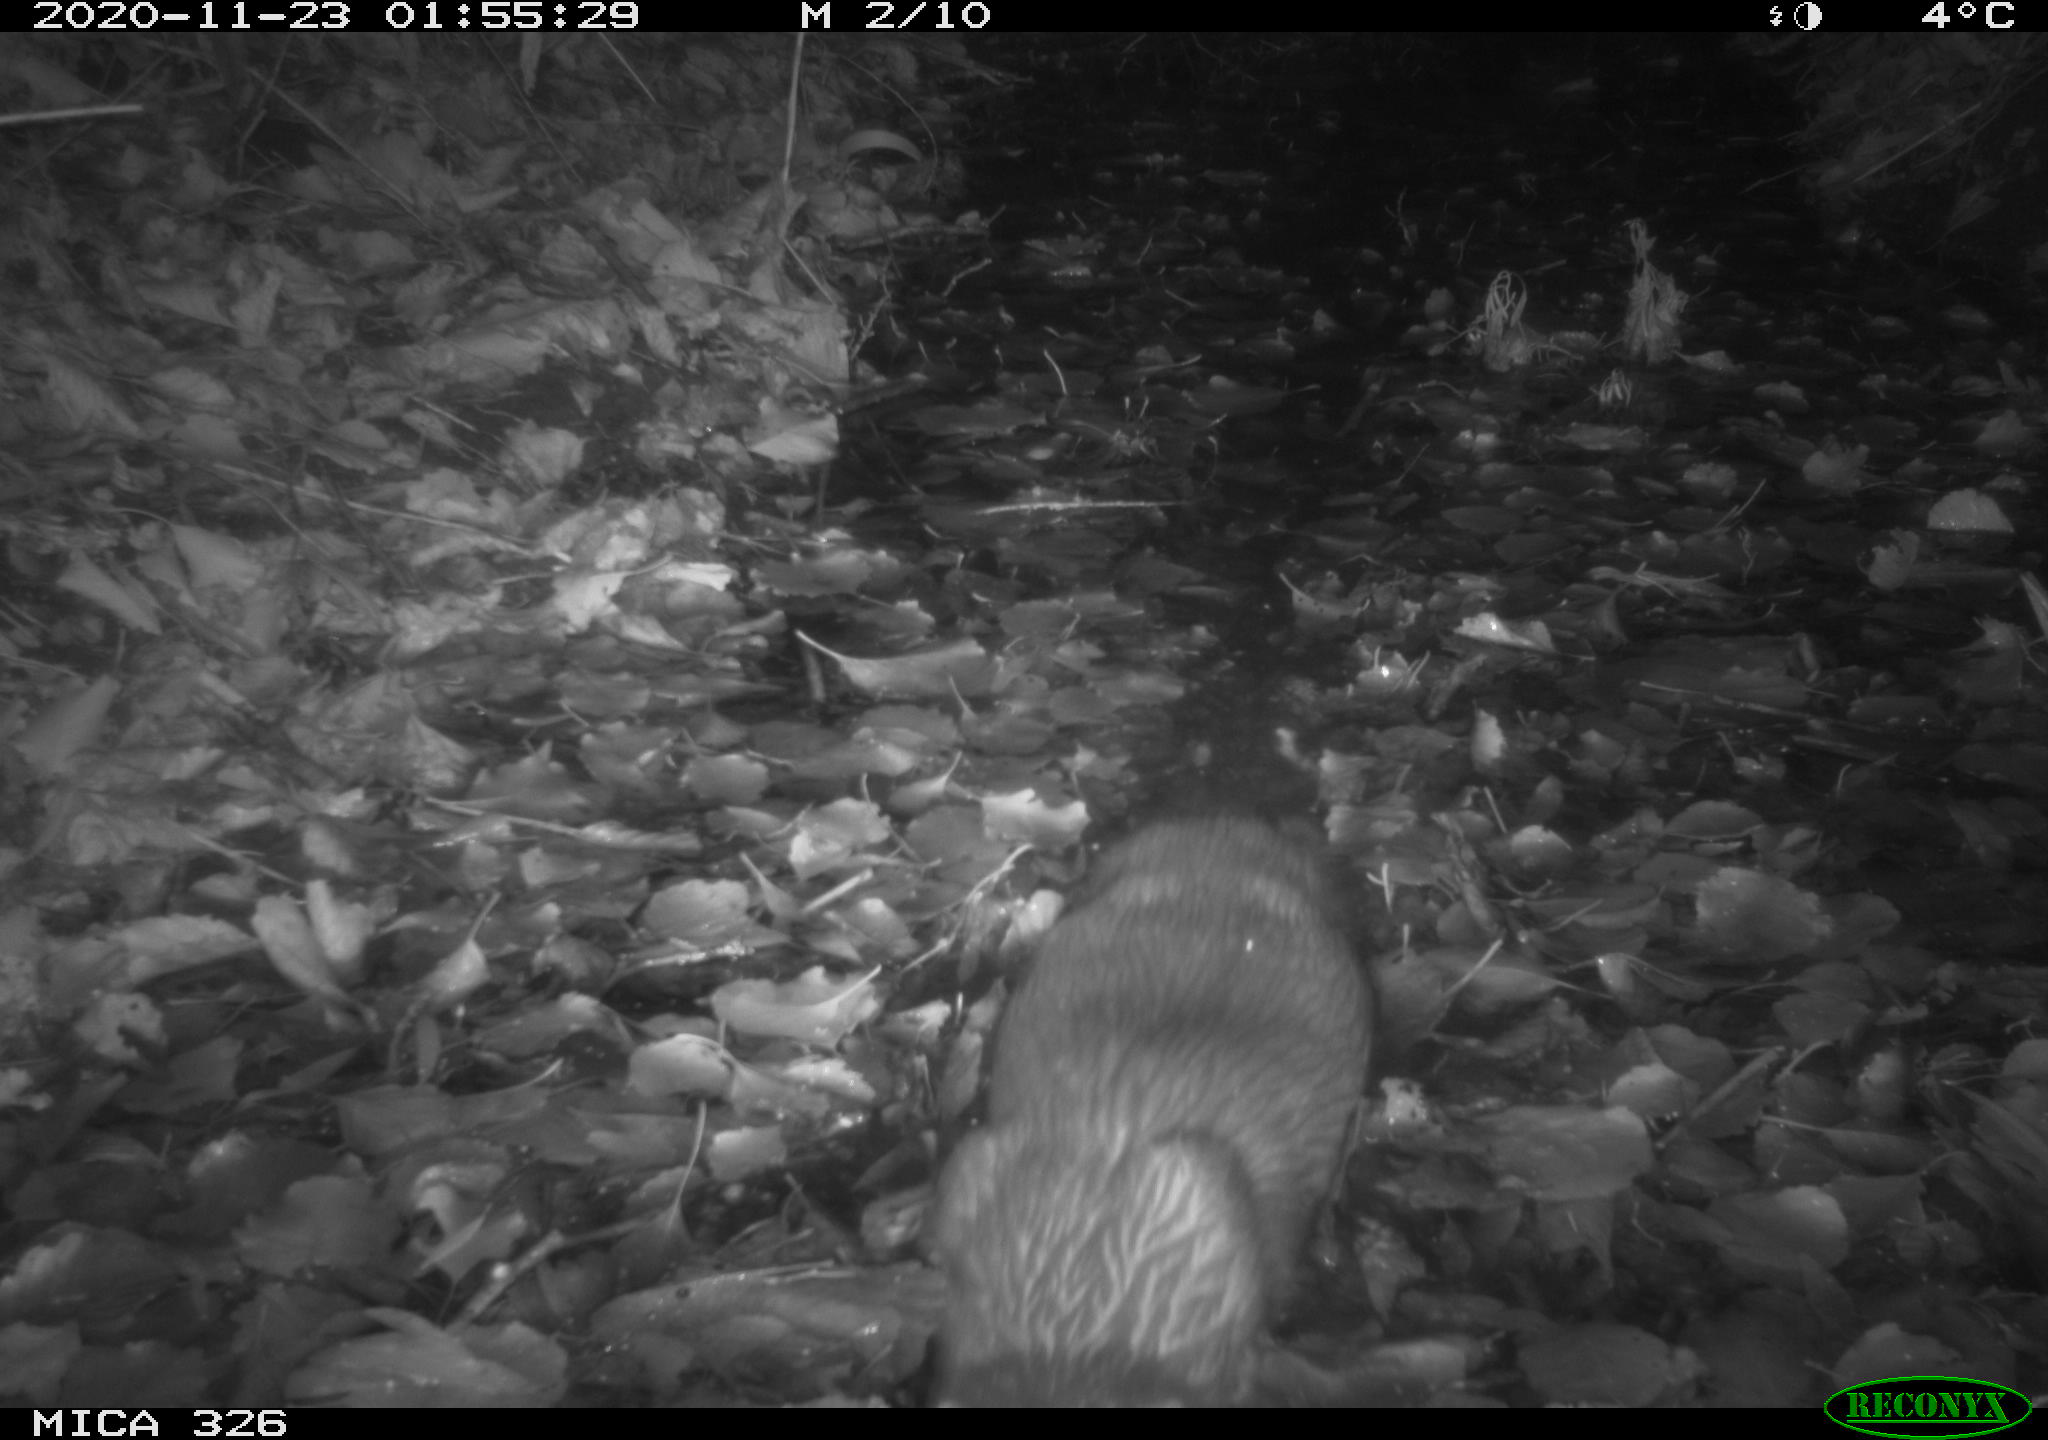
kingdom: Animalia
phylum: Chordata
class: Mammalia
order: Carnivora
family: Mustelidae
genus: Lutra
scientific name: Lutra lutra
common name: European otter
